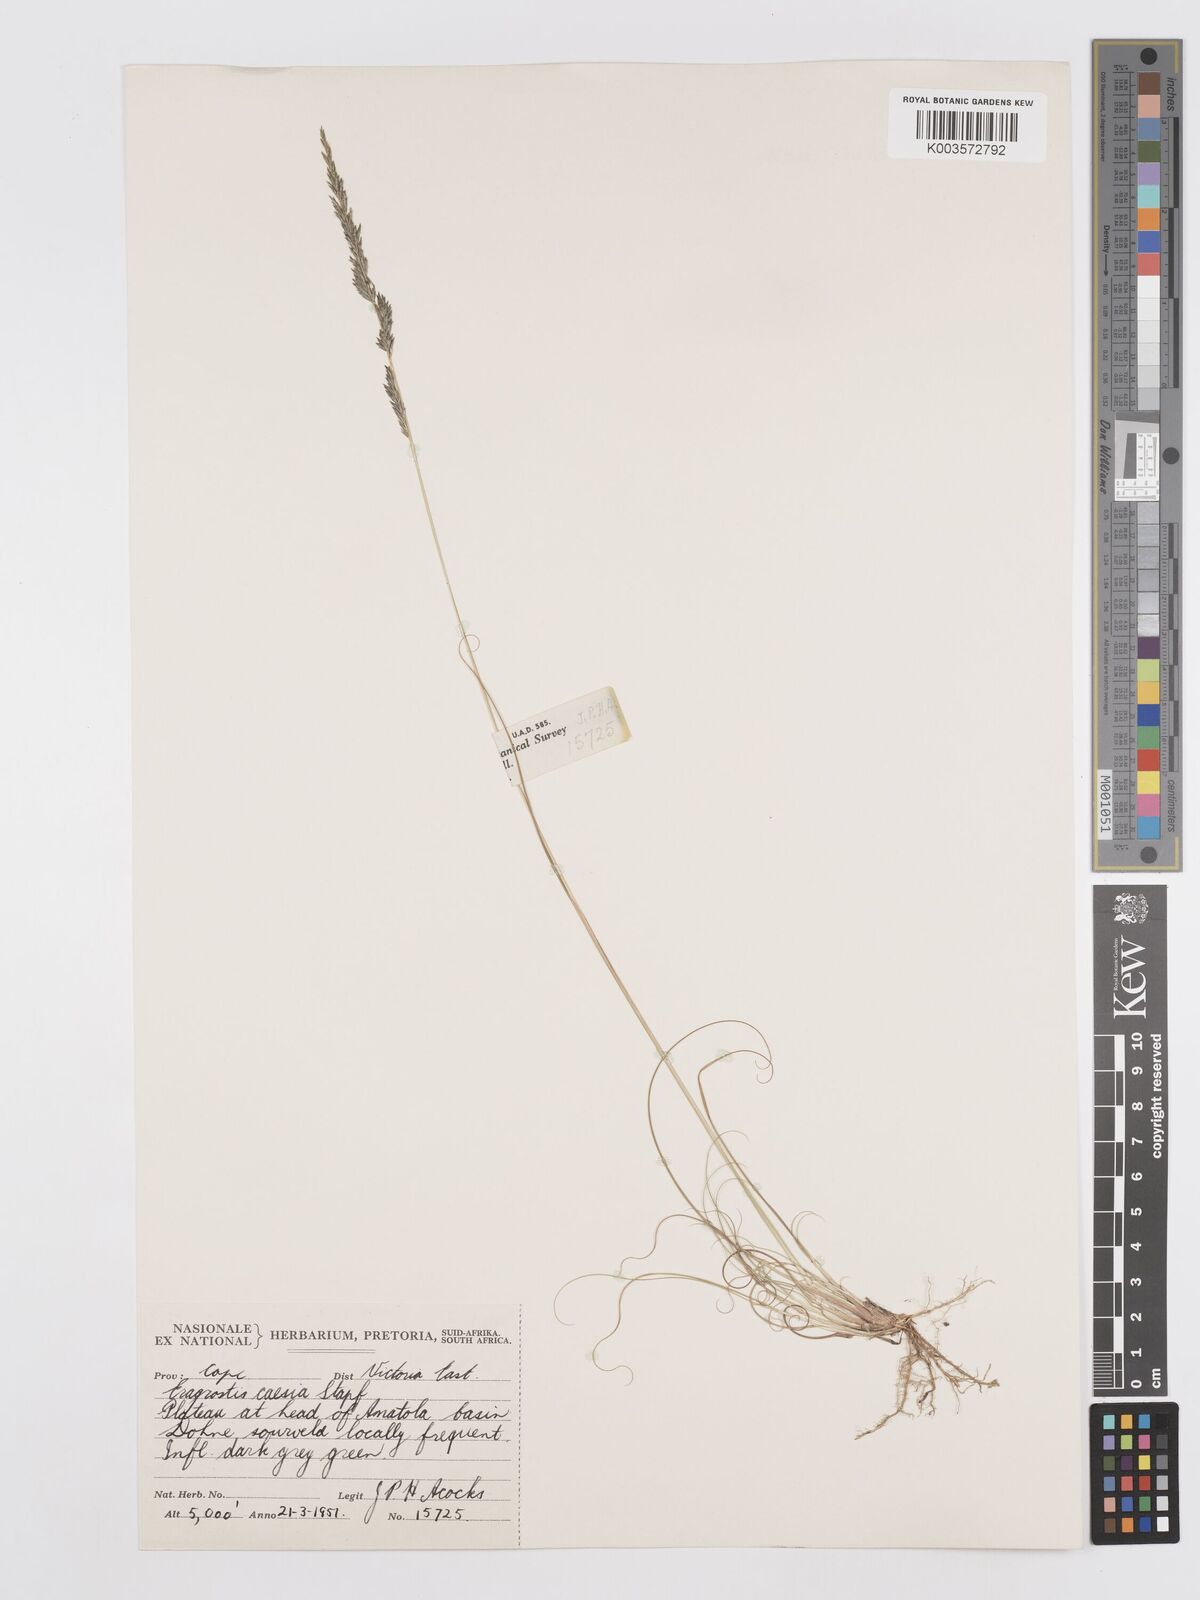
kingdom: Plantae
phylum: Tracheophyta
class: Liliopsida
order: Poales
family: Poaceae
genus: Eragrostis
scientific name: Eragrostis caesia
